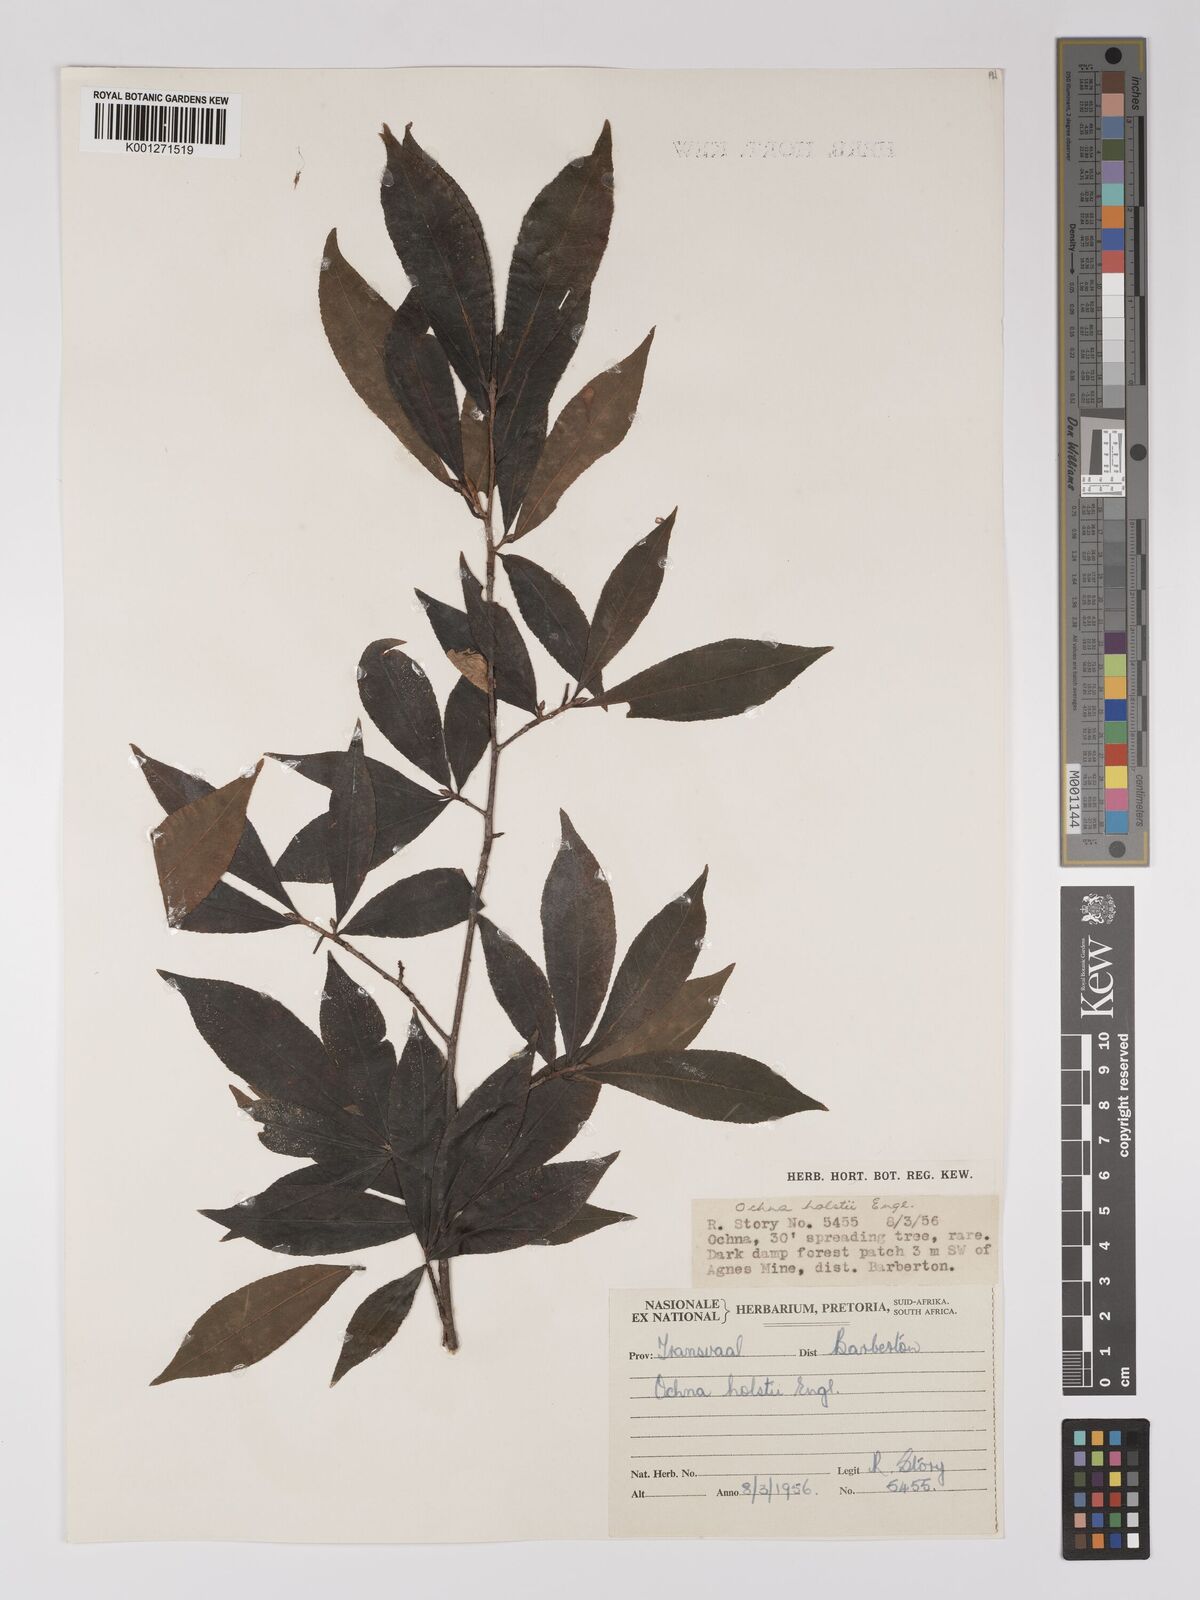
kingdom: Plantae
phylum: Tracheophyta
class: Magnoliopsida
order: Malpighiales
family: Ochnaceae
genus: Ochna
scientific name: Ochna holstii
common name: Red ironwood
